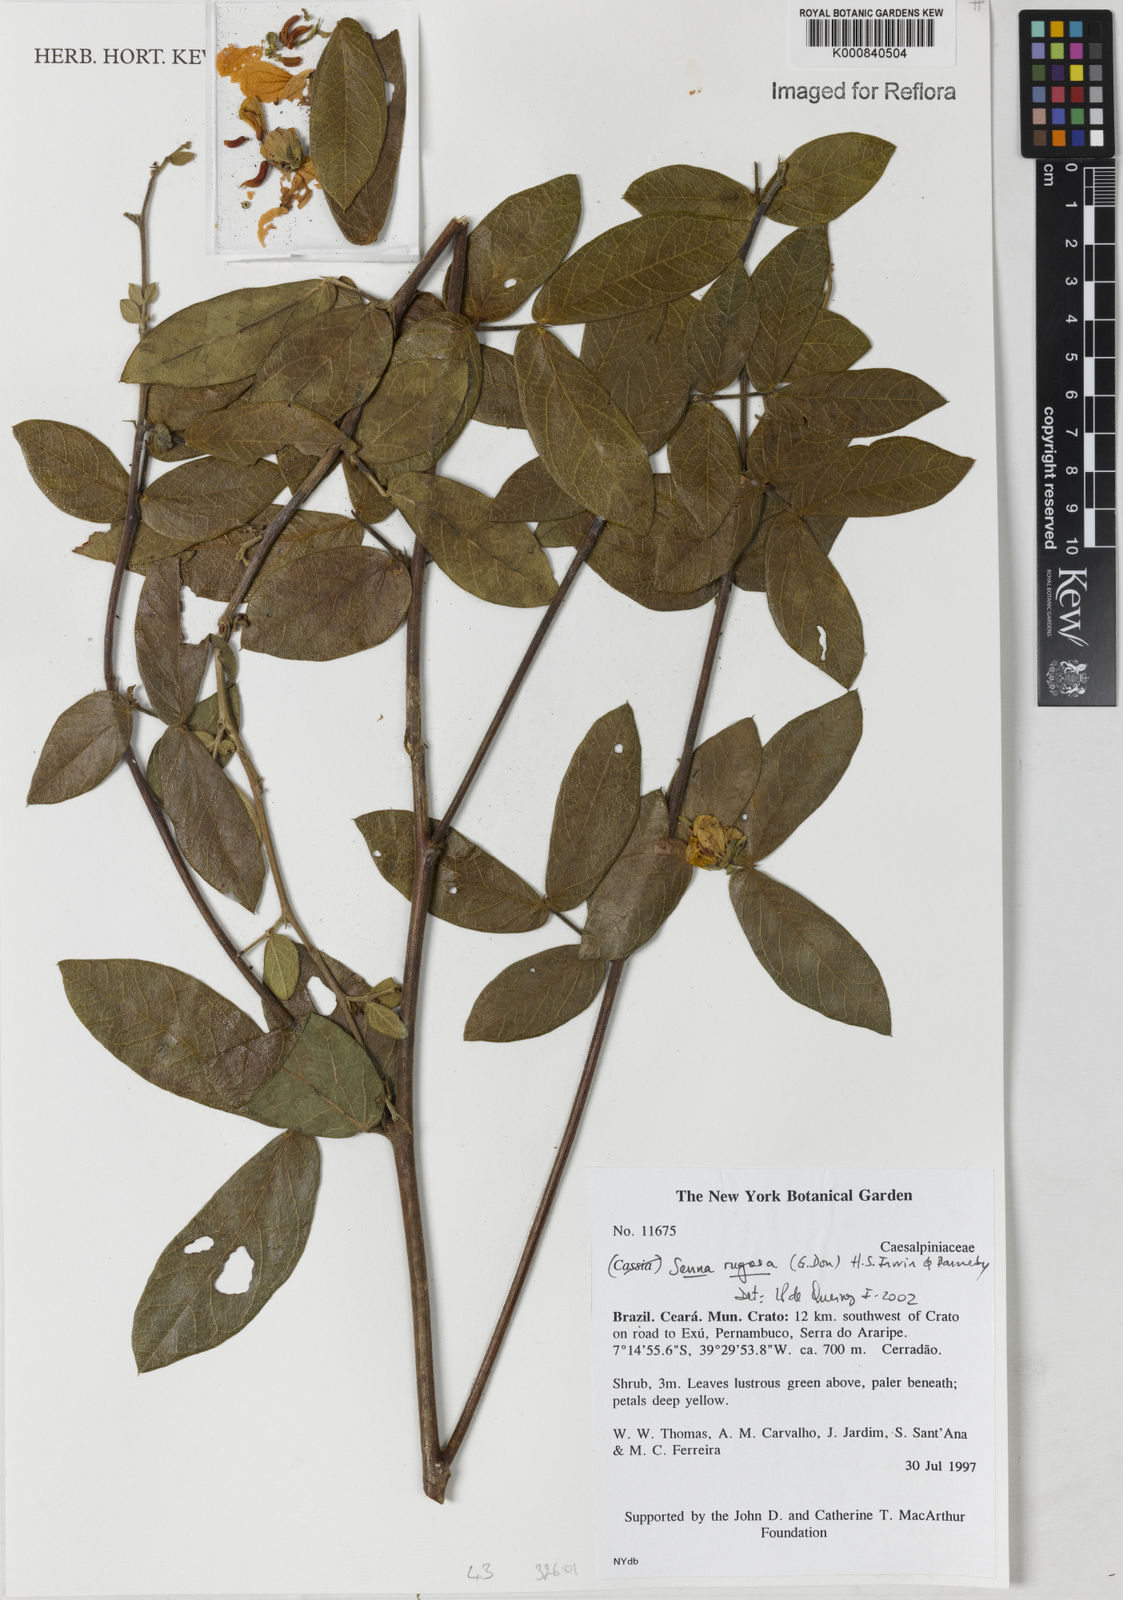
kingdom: Plantae
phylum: Tracheophyta
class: Magnoliopsida
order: Fabales
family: Fabaceae
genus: Senna
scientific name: Senna rugosa
